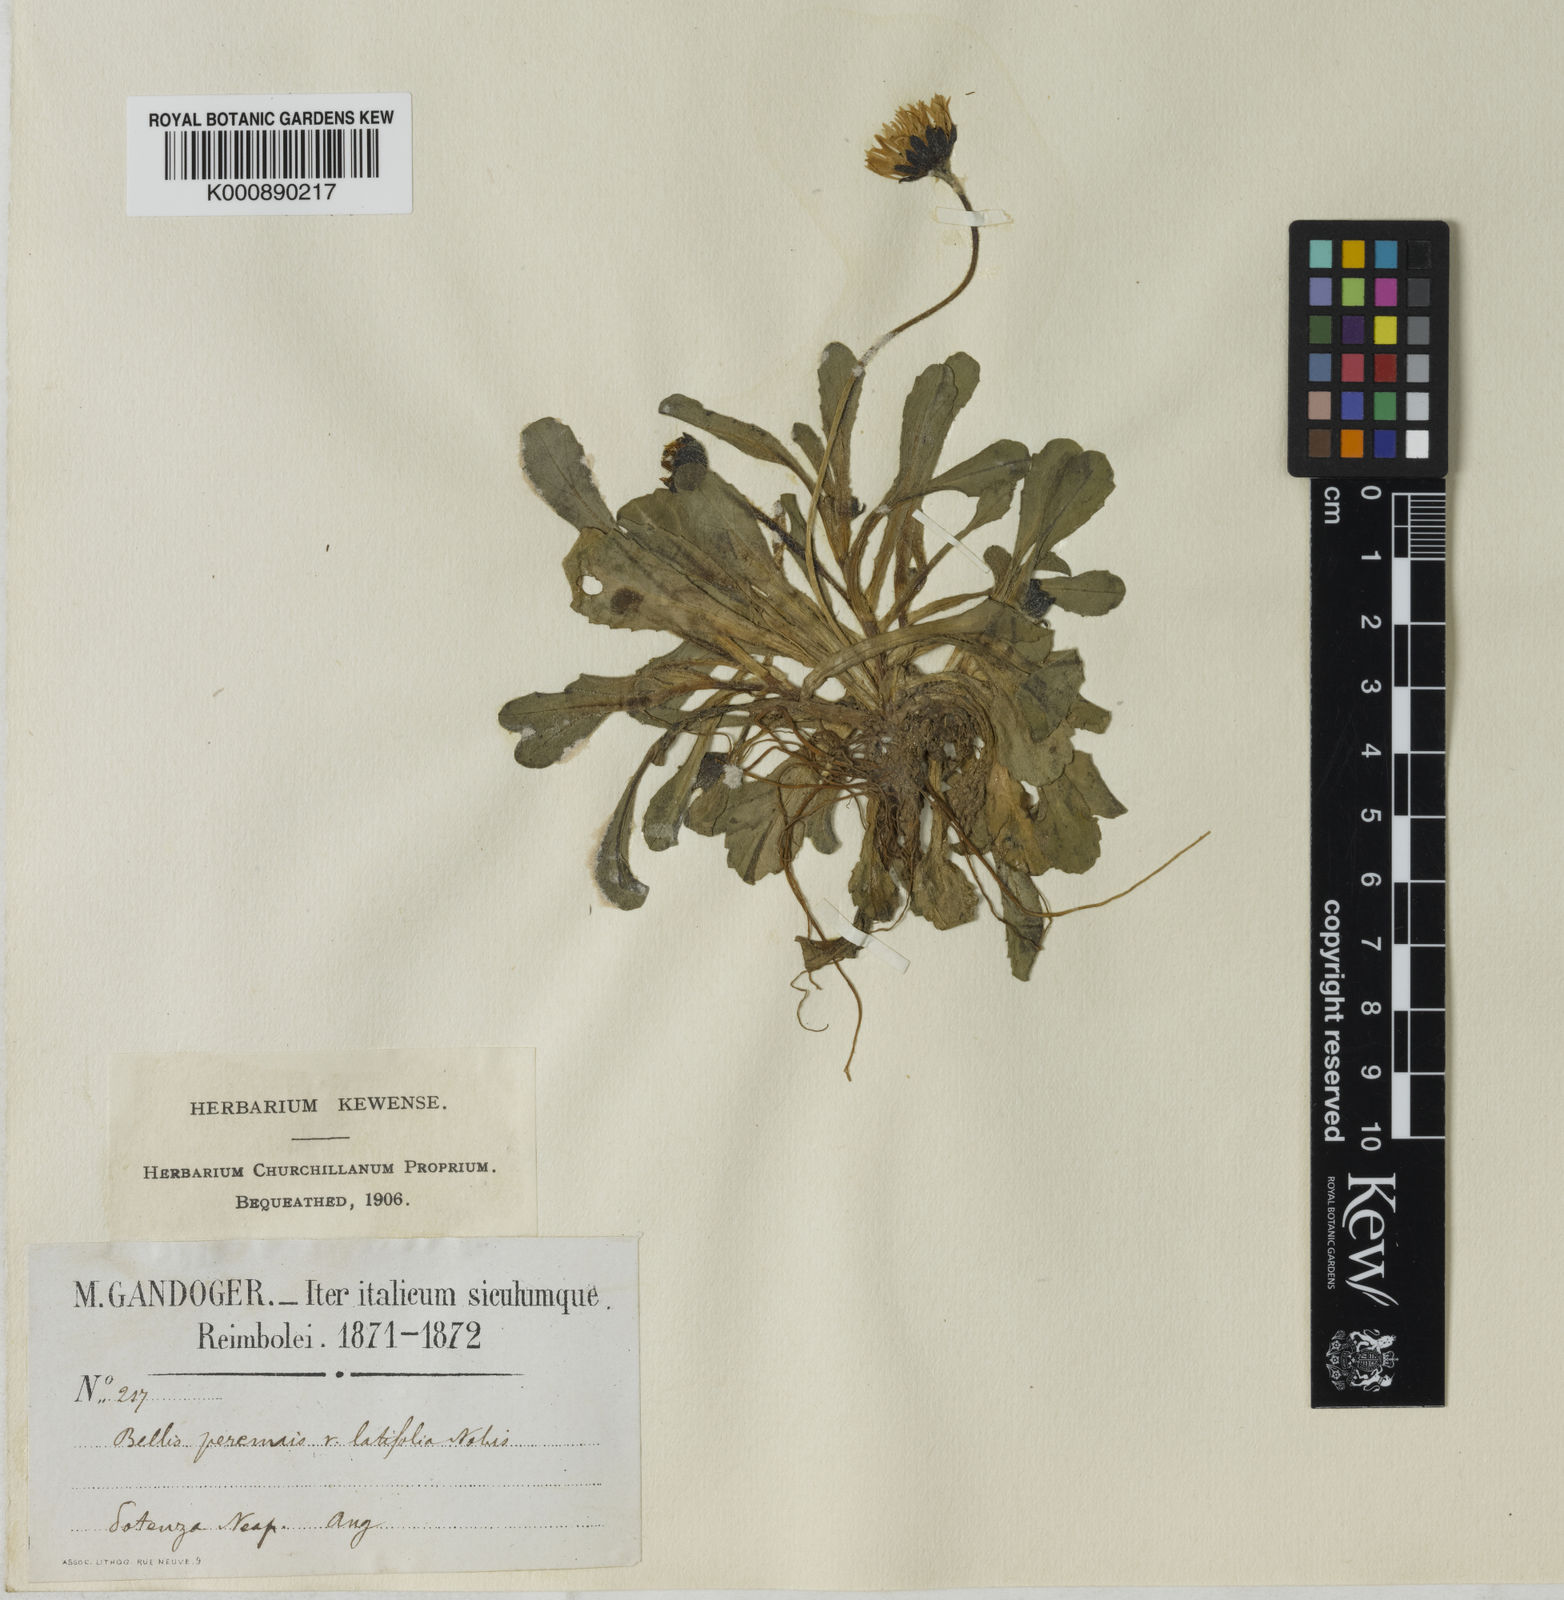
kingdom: Plantae
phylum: Tracheophyta
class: Magnoliopsida
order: Asterales
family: Asteraceae
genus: Bellis
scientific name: Bellis perennis
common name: Lawndaisy
